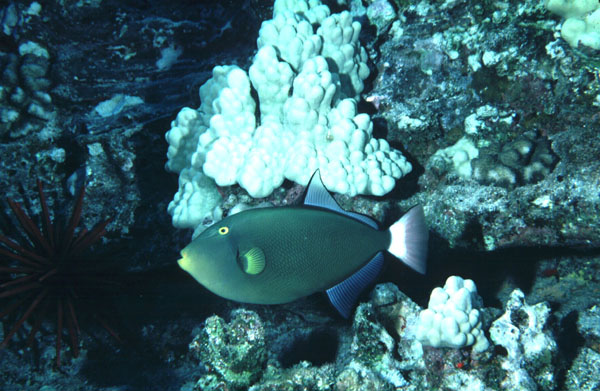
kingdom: Animalia
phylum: Chordata
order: Tetraodontiformes
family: Balistidae
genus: Melichthys
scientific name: Melichthys vidua
